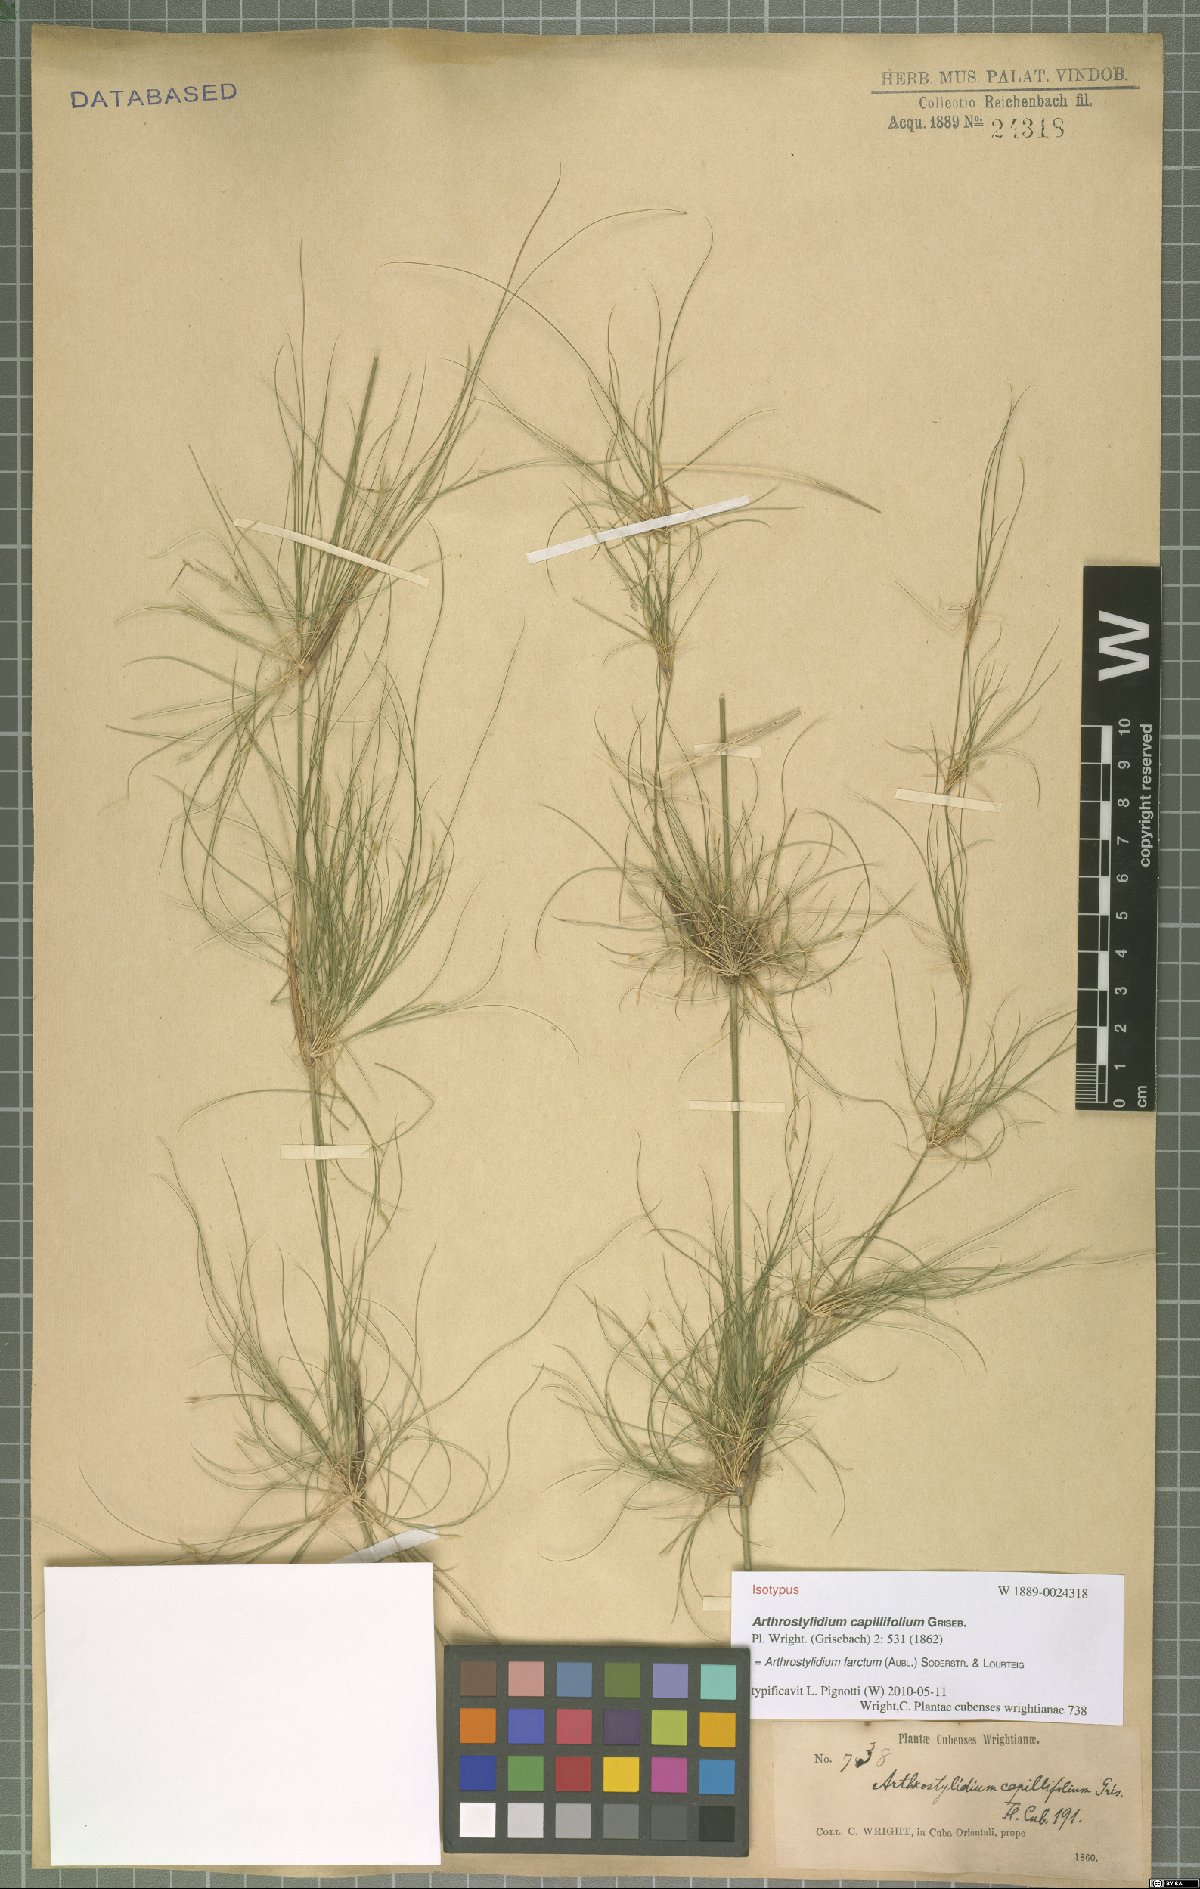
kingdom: Plantae
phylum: Tracheophyta
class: Liliopsida
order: Poales
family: Poaceae
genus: Tibisia
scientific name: Tibisia farcta
